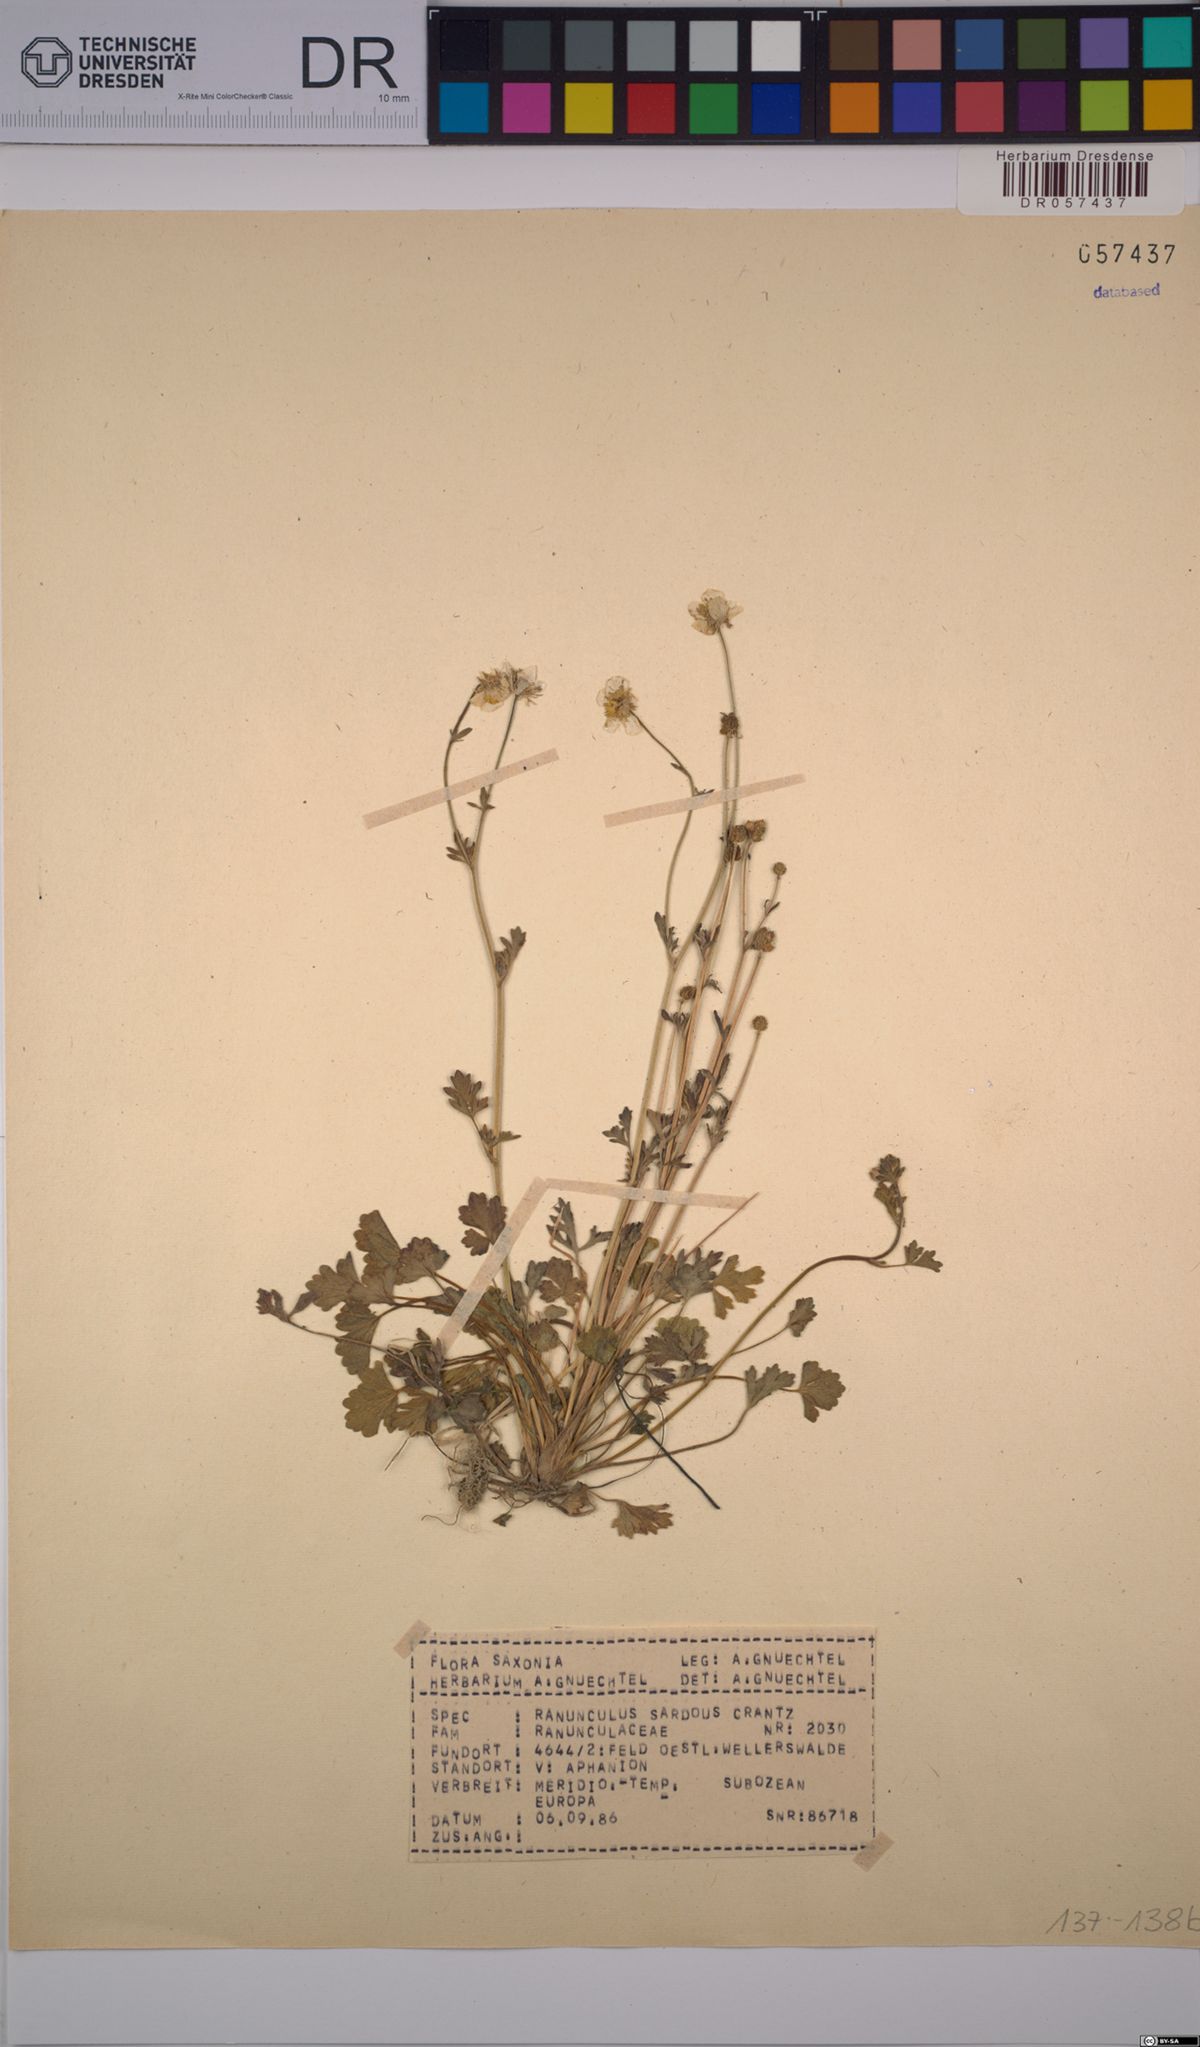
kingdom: Plantae
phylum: Tracheophyta
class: Magnoliopsida
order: Ranunculales
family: Ranunculaceae
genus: Ranunculus
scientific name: Ranunculus sardous
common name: Hairy buttercup
